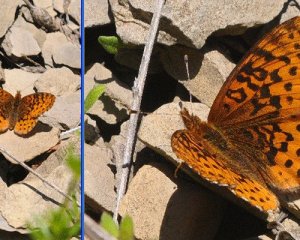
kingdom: Animalia
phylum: Arthropoda
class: Insecta
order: Lepidoptera
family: Nymphalidae
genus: Clossiana
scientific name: Clossiana toddi
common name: Meadow Fritillary
